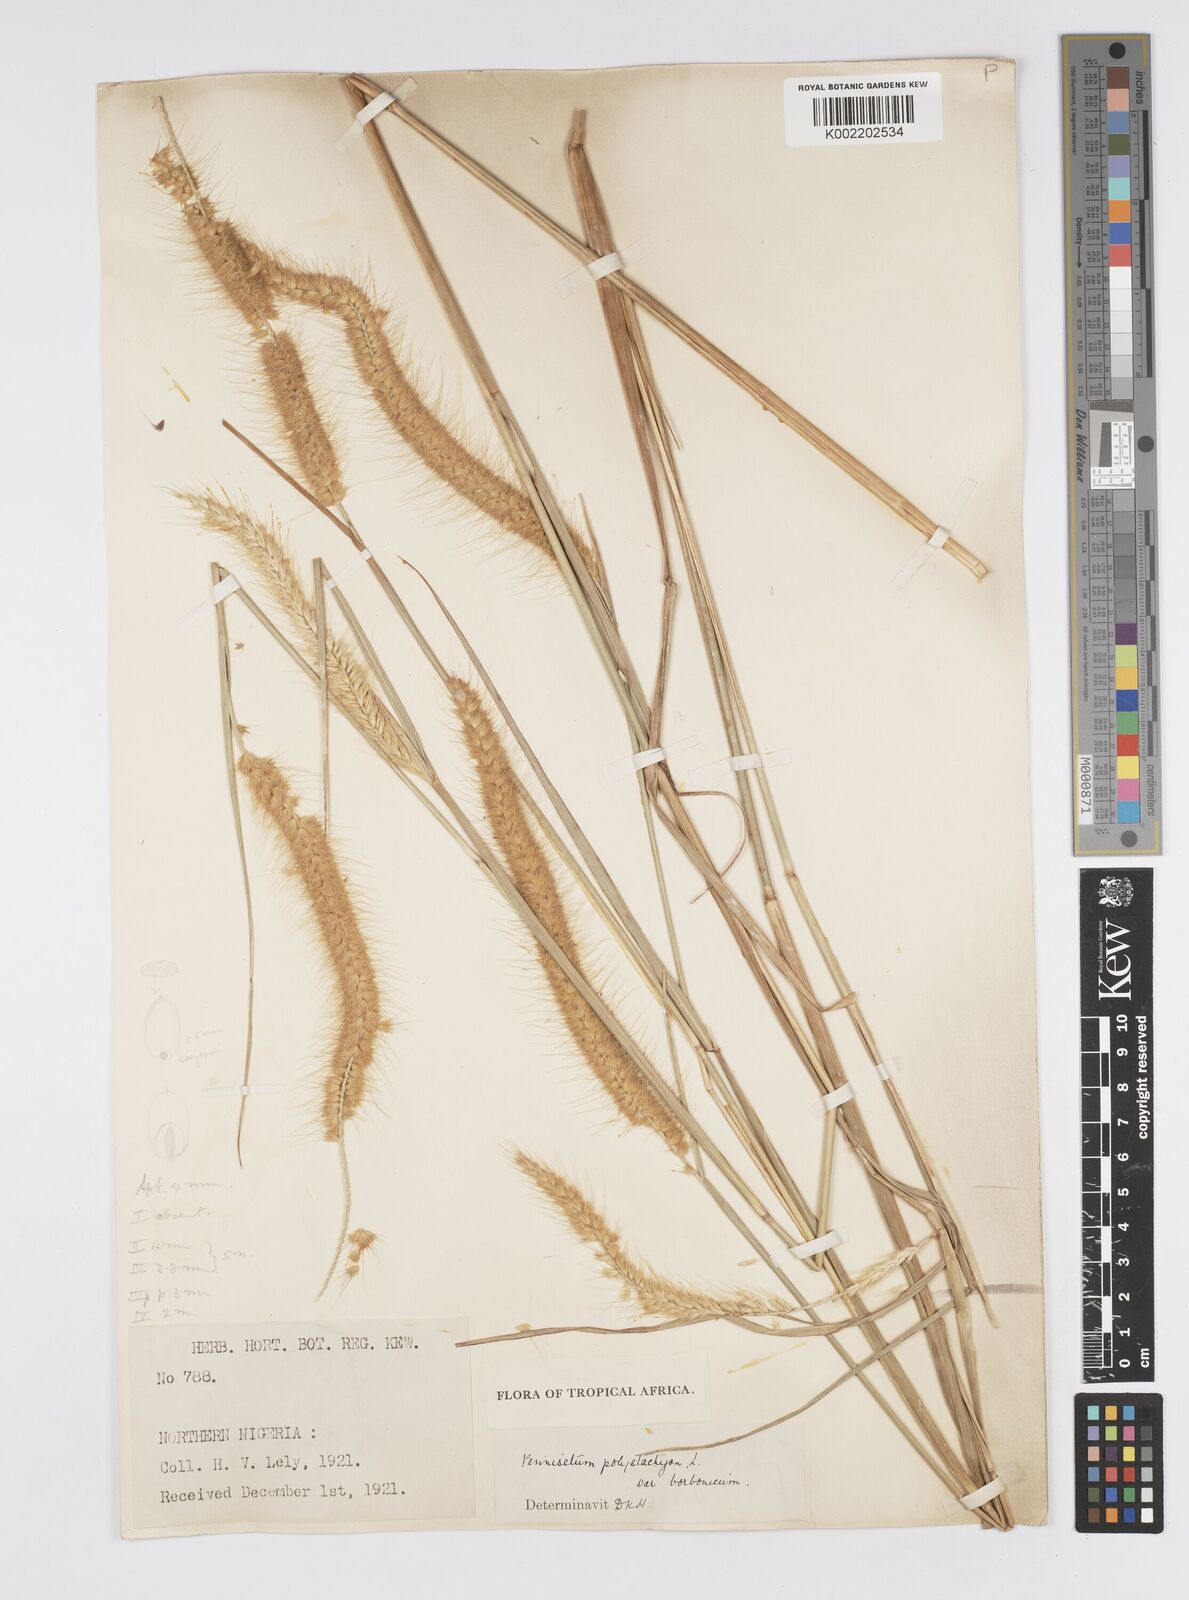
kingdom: Plantae
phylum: Tracheophyta
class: Liliopsida
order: Poales
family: Poaceae
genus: Setaria
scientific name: Setaria parviflora
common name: Knotroot bristle-grass
